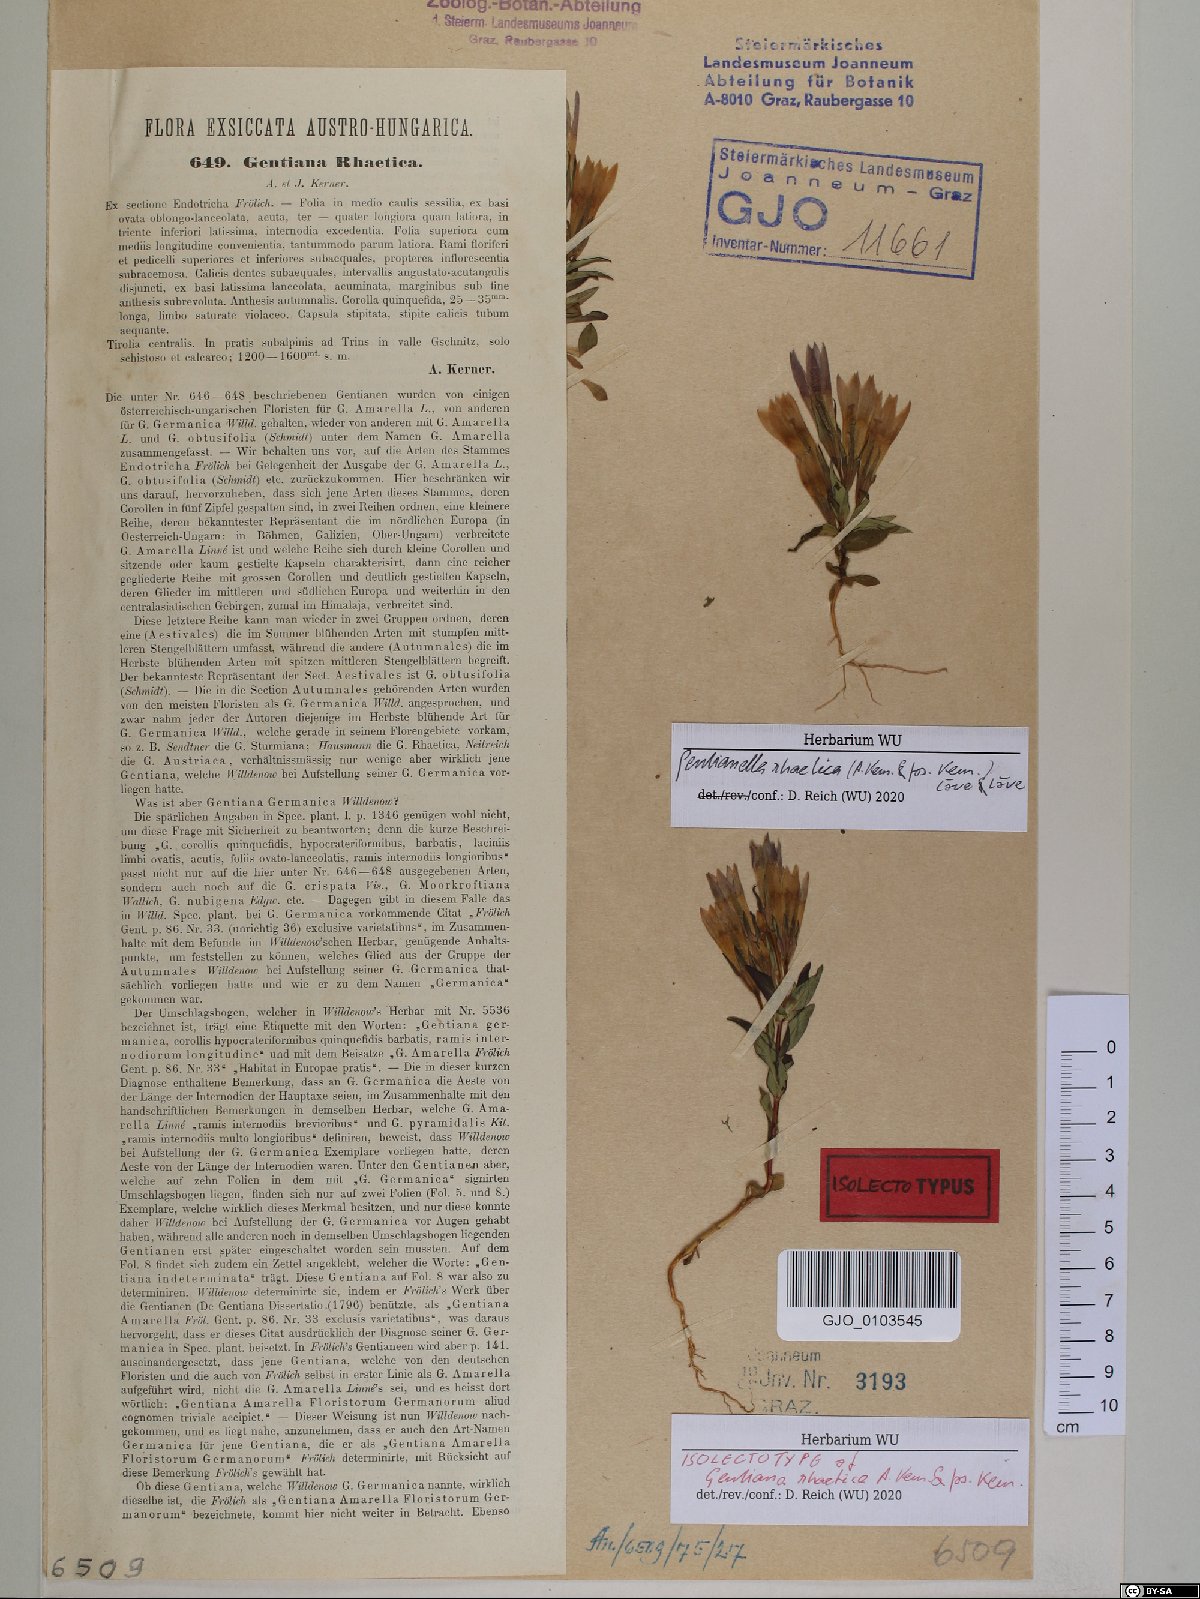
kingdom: Plantae
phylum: Tracheophyta
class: Magnoliopsida
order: Gentianales
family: Gentianaceae
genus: Gentianella
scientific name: Gentianella rhaetica
